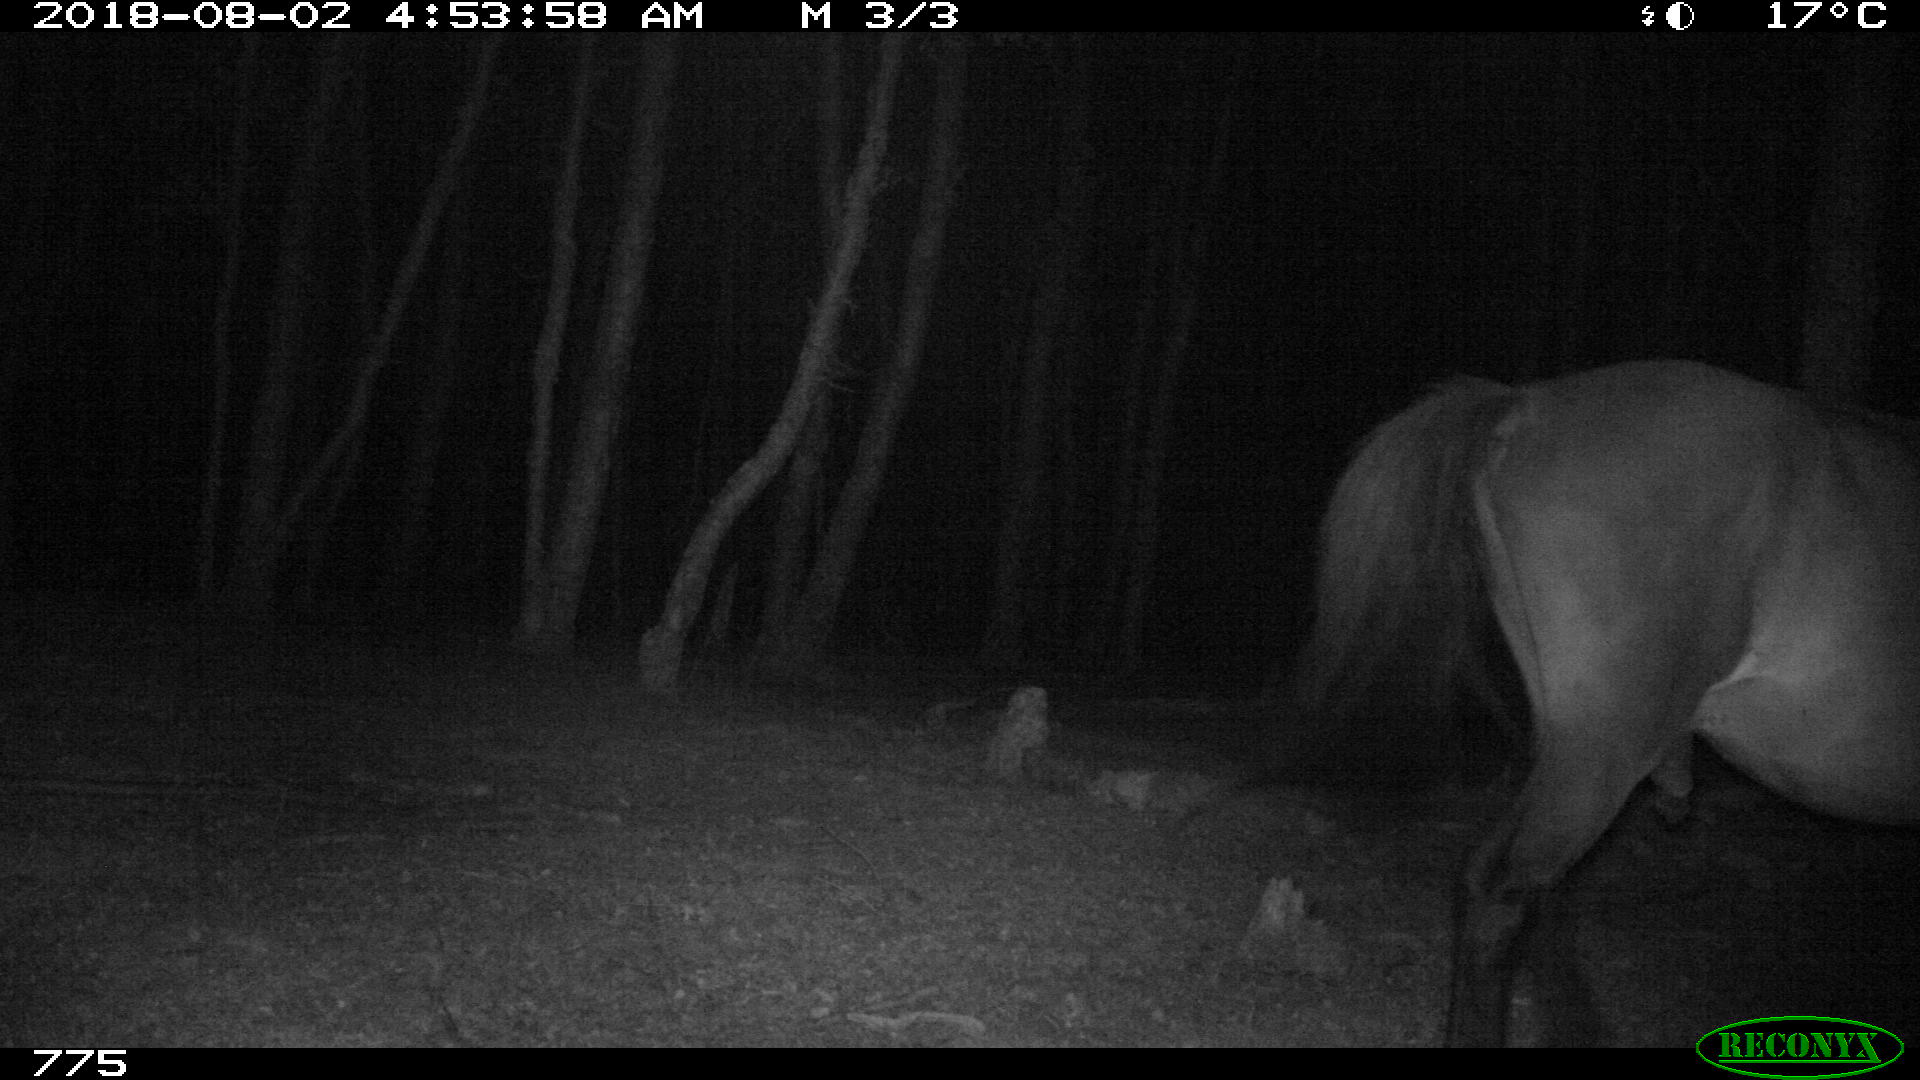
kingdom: Animalia
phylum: Chordata
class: Mammalia
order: Perissodactyla
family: Equidae
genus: Equus
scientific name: Equus caballus
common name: Horse
